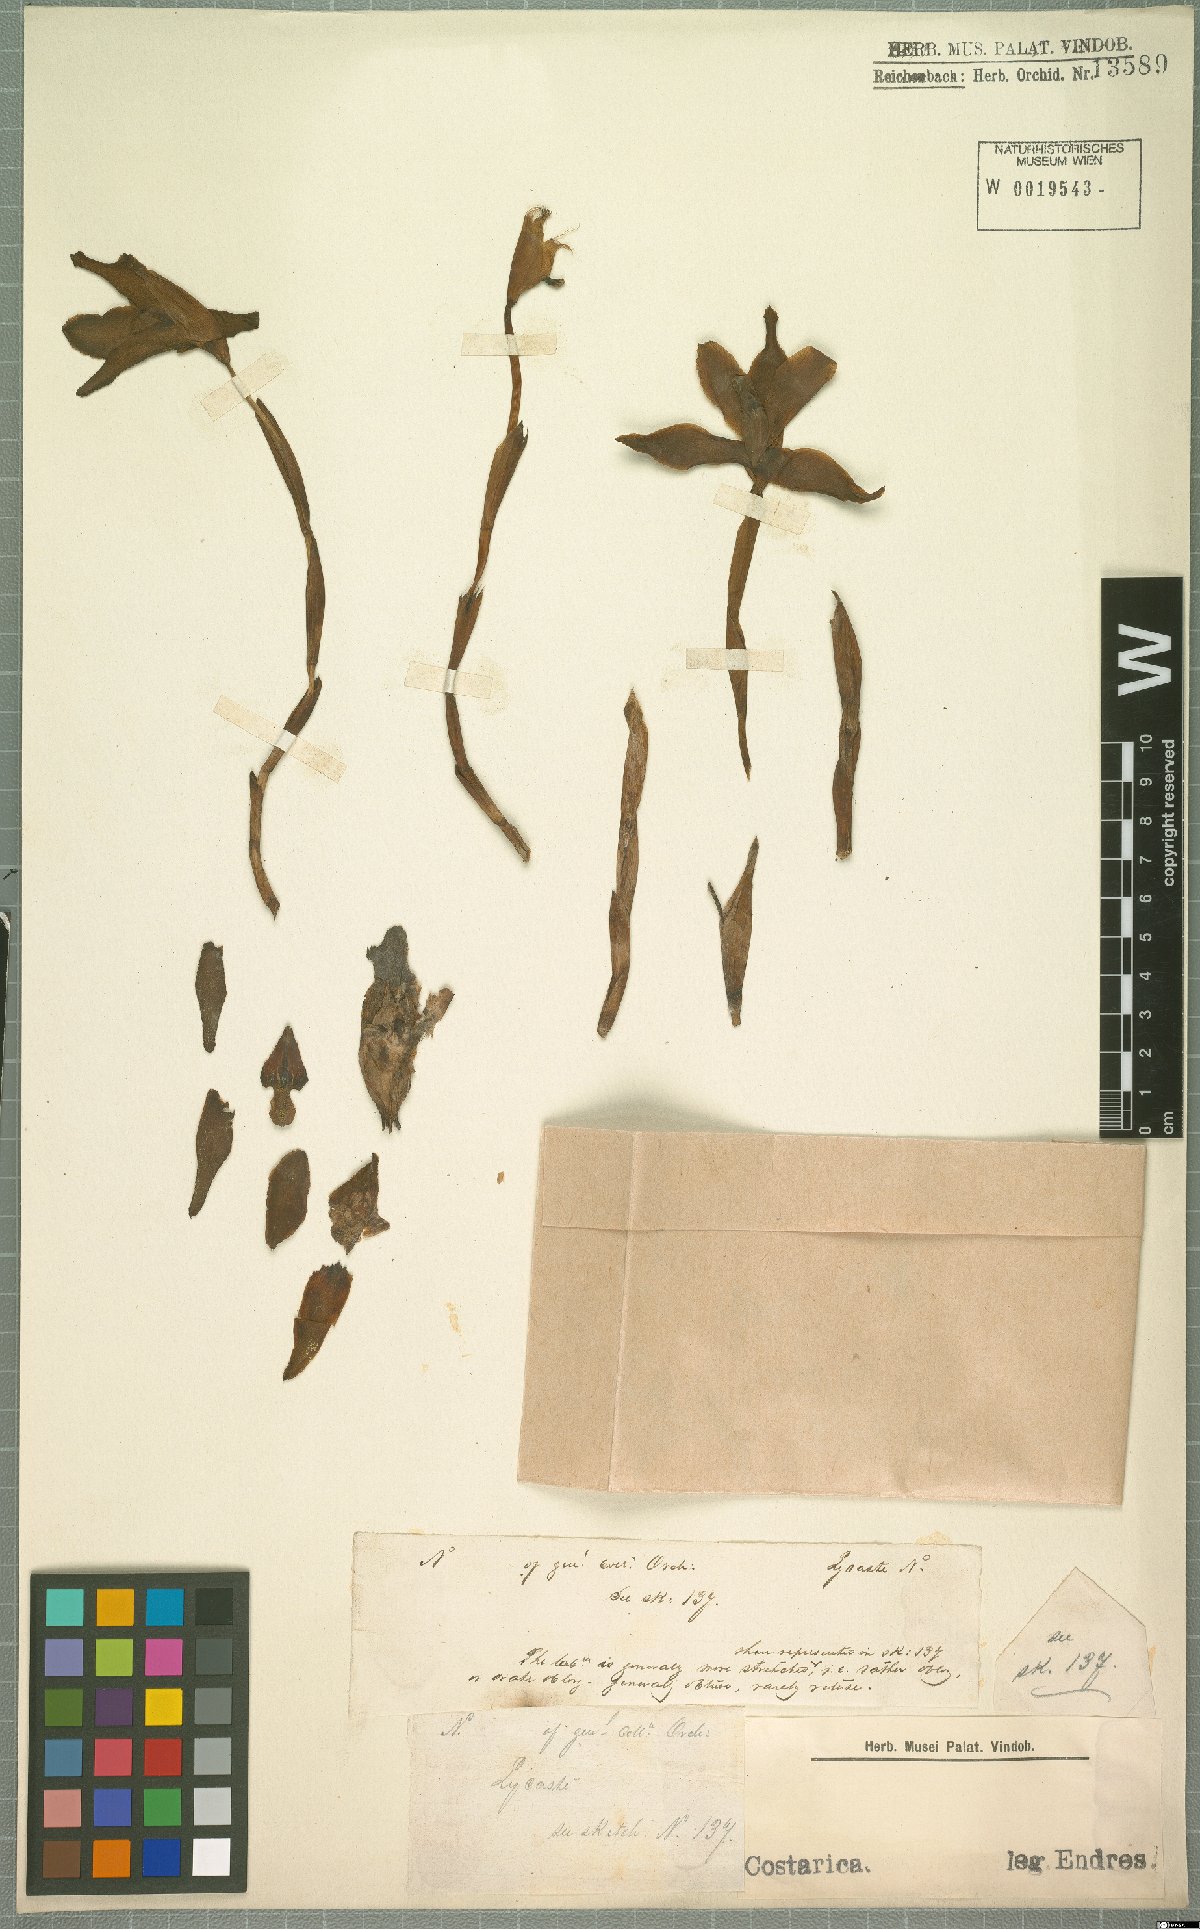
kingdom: Plantae
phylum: Tracheophyta
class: Liliopsida
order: Asparagales
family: Orchidaceae
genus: Lycaste
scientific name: Lycaste
